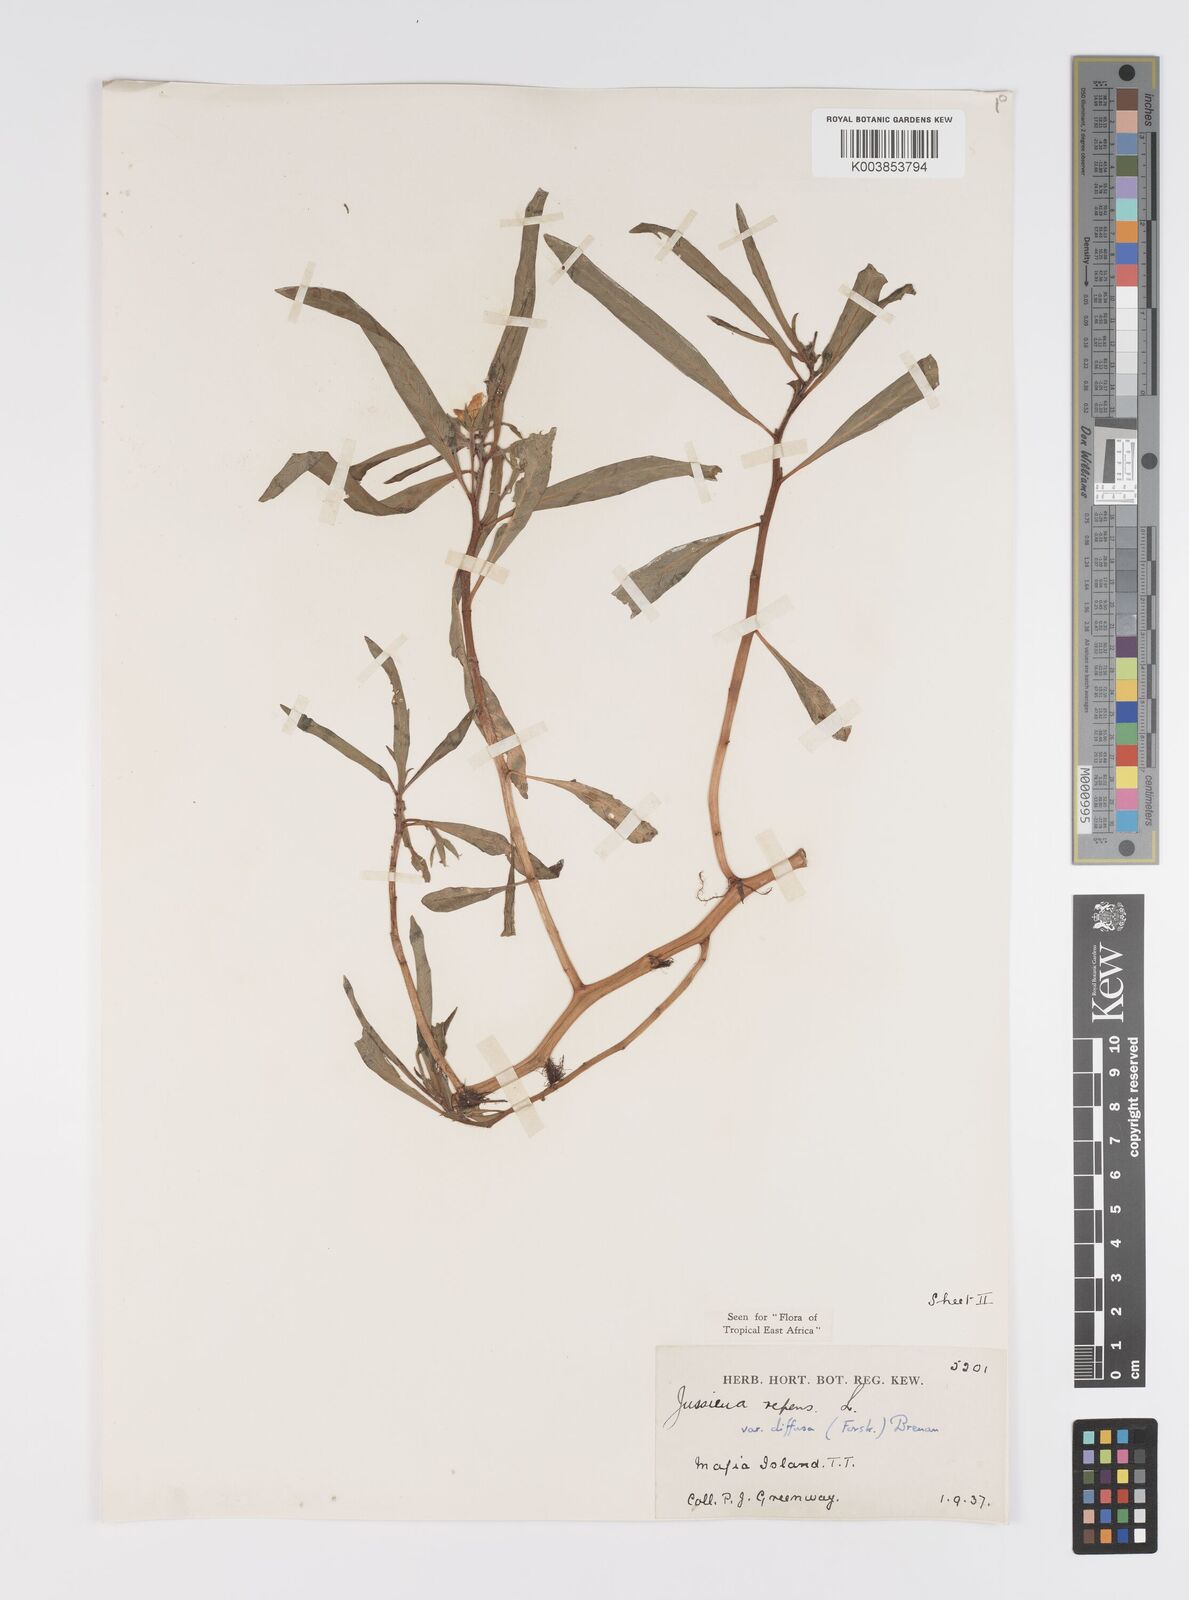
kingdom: Plantae
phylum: Tracheophyta
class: Magnoliopsida
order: Myrtales
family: Onagraceae
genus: Ludwigia
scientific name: Ludwigia repens
